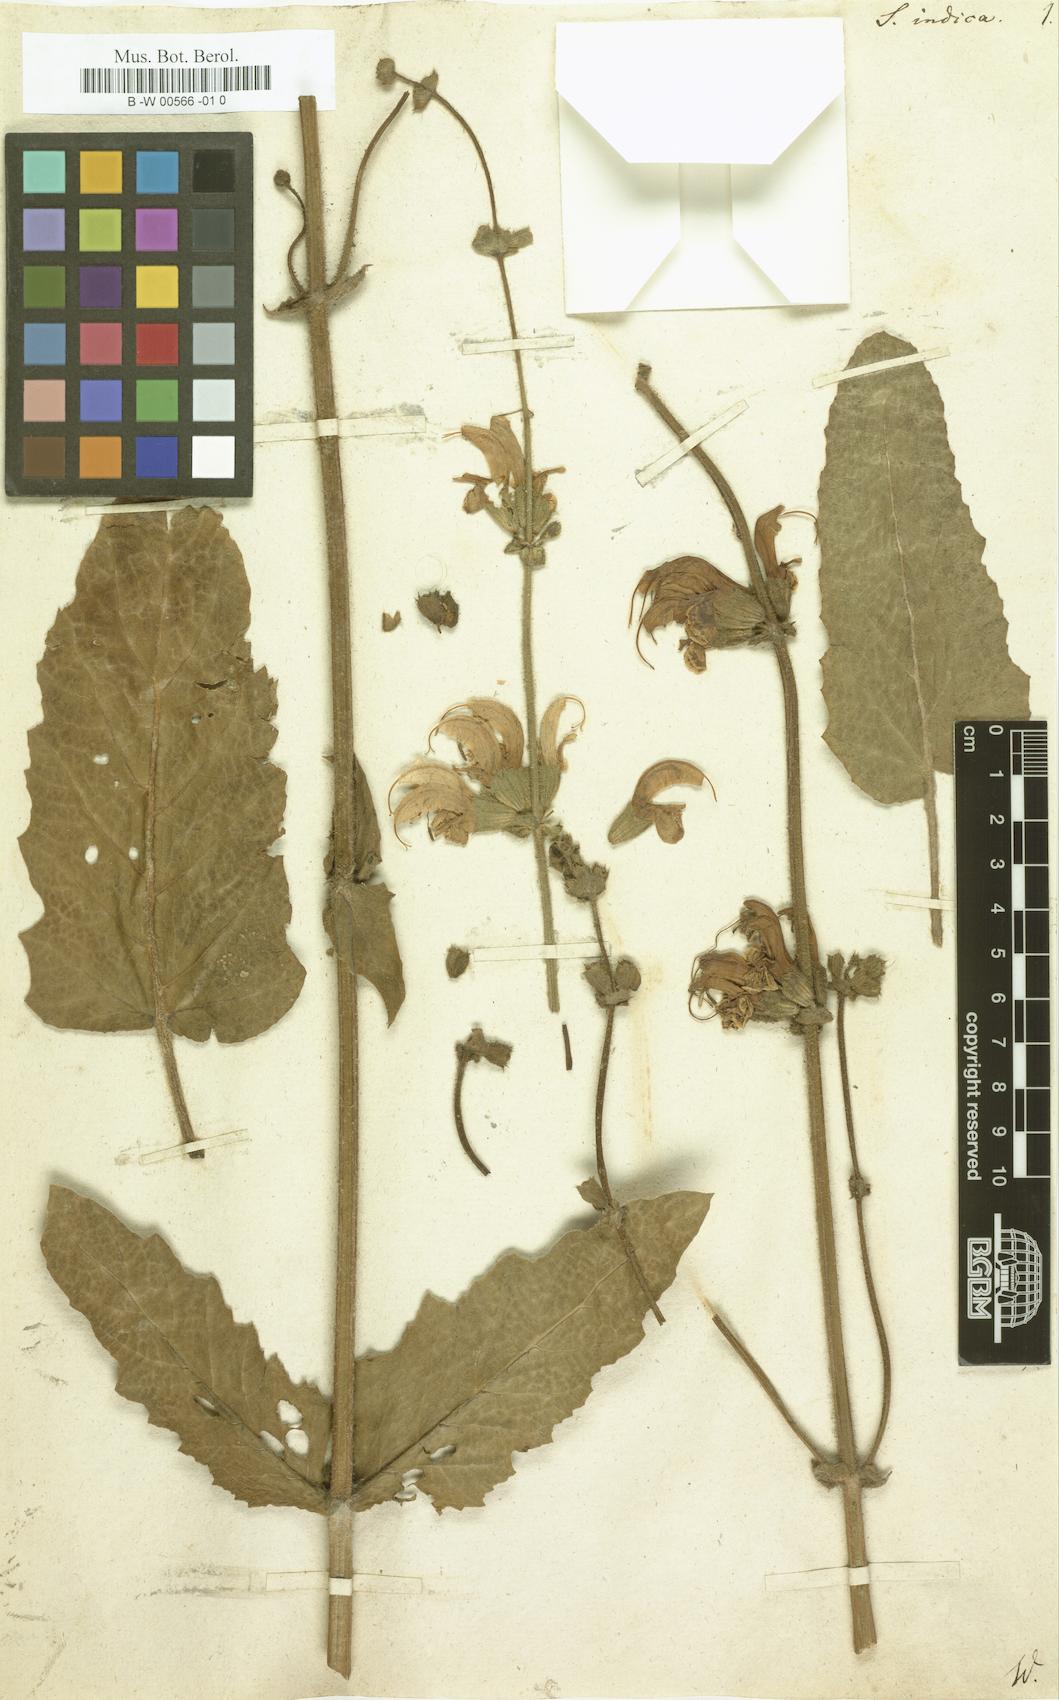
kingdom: Plantae
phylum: Tracheophyta
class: Magnoliopsida
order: Lamiales
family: Lamiaceae
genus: Salvia
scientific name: Salvia indica
